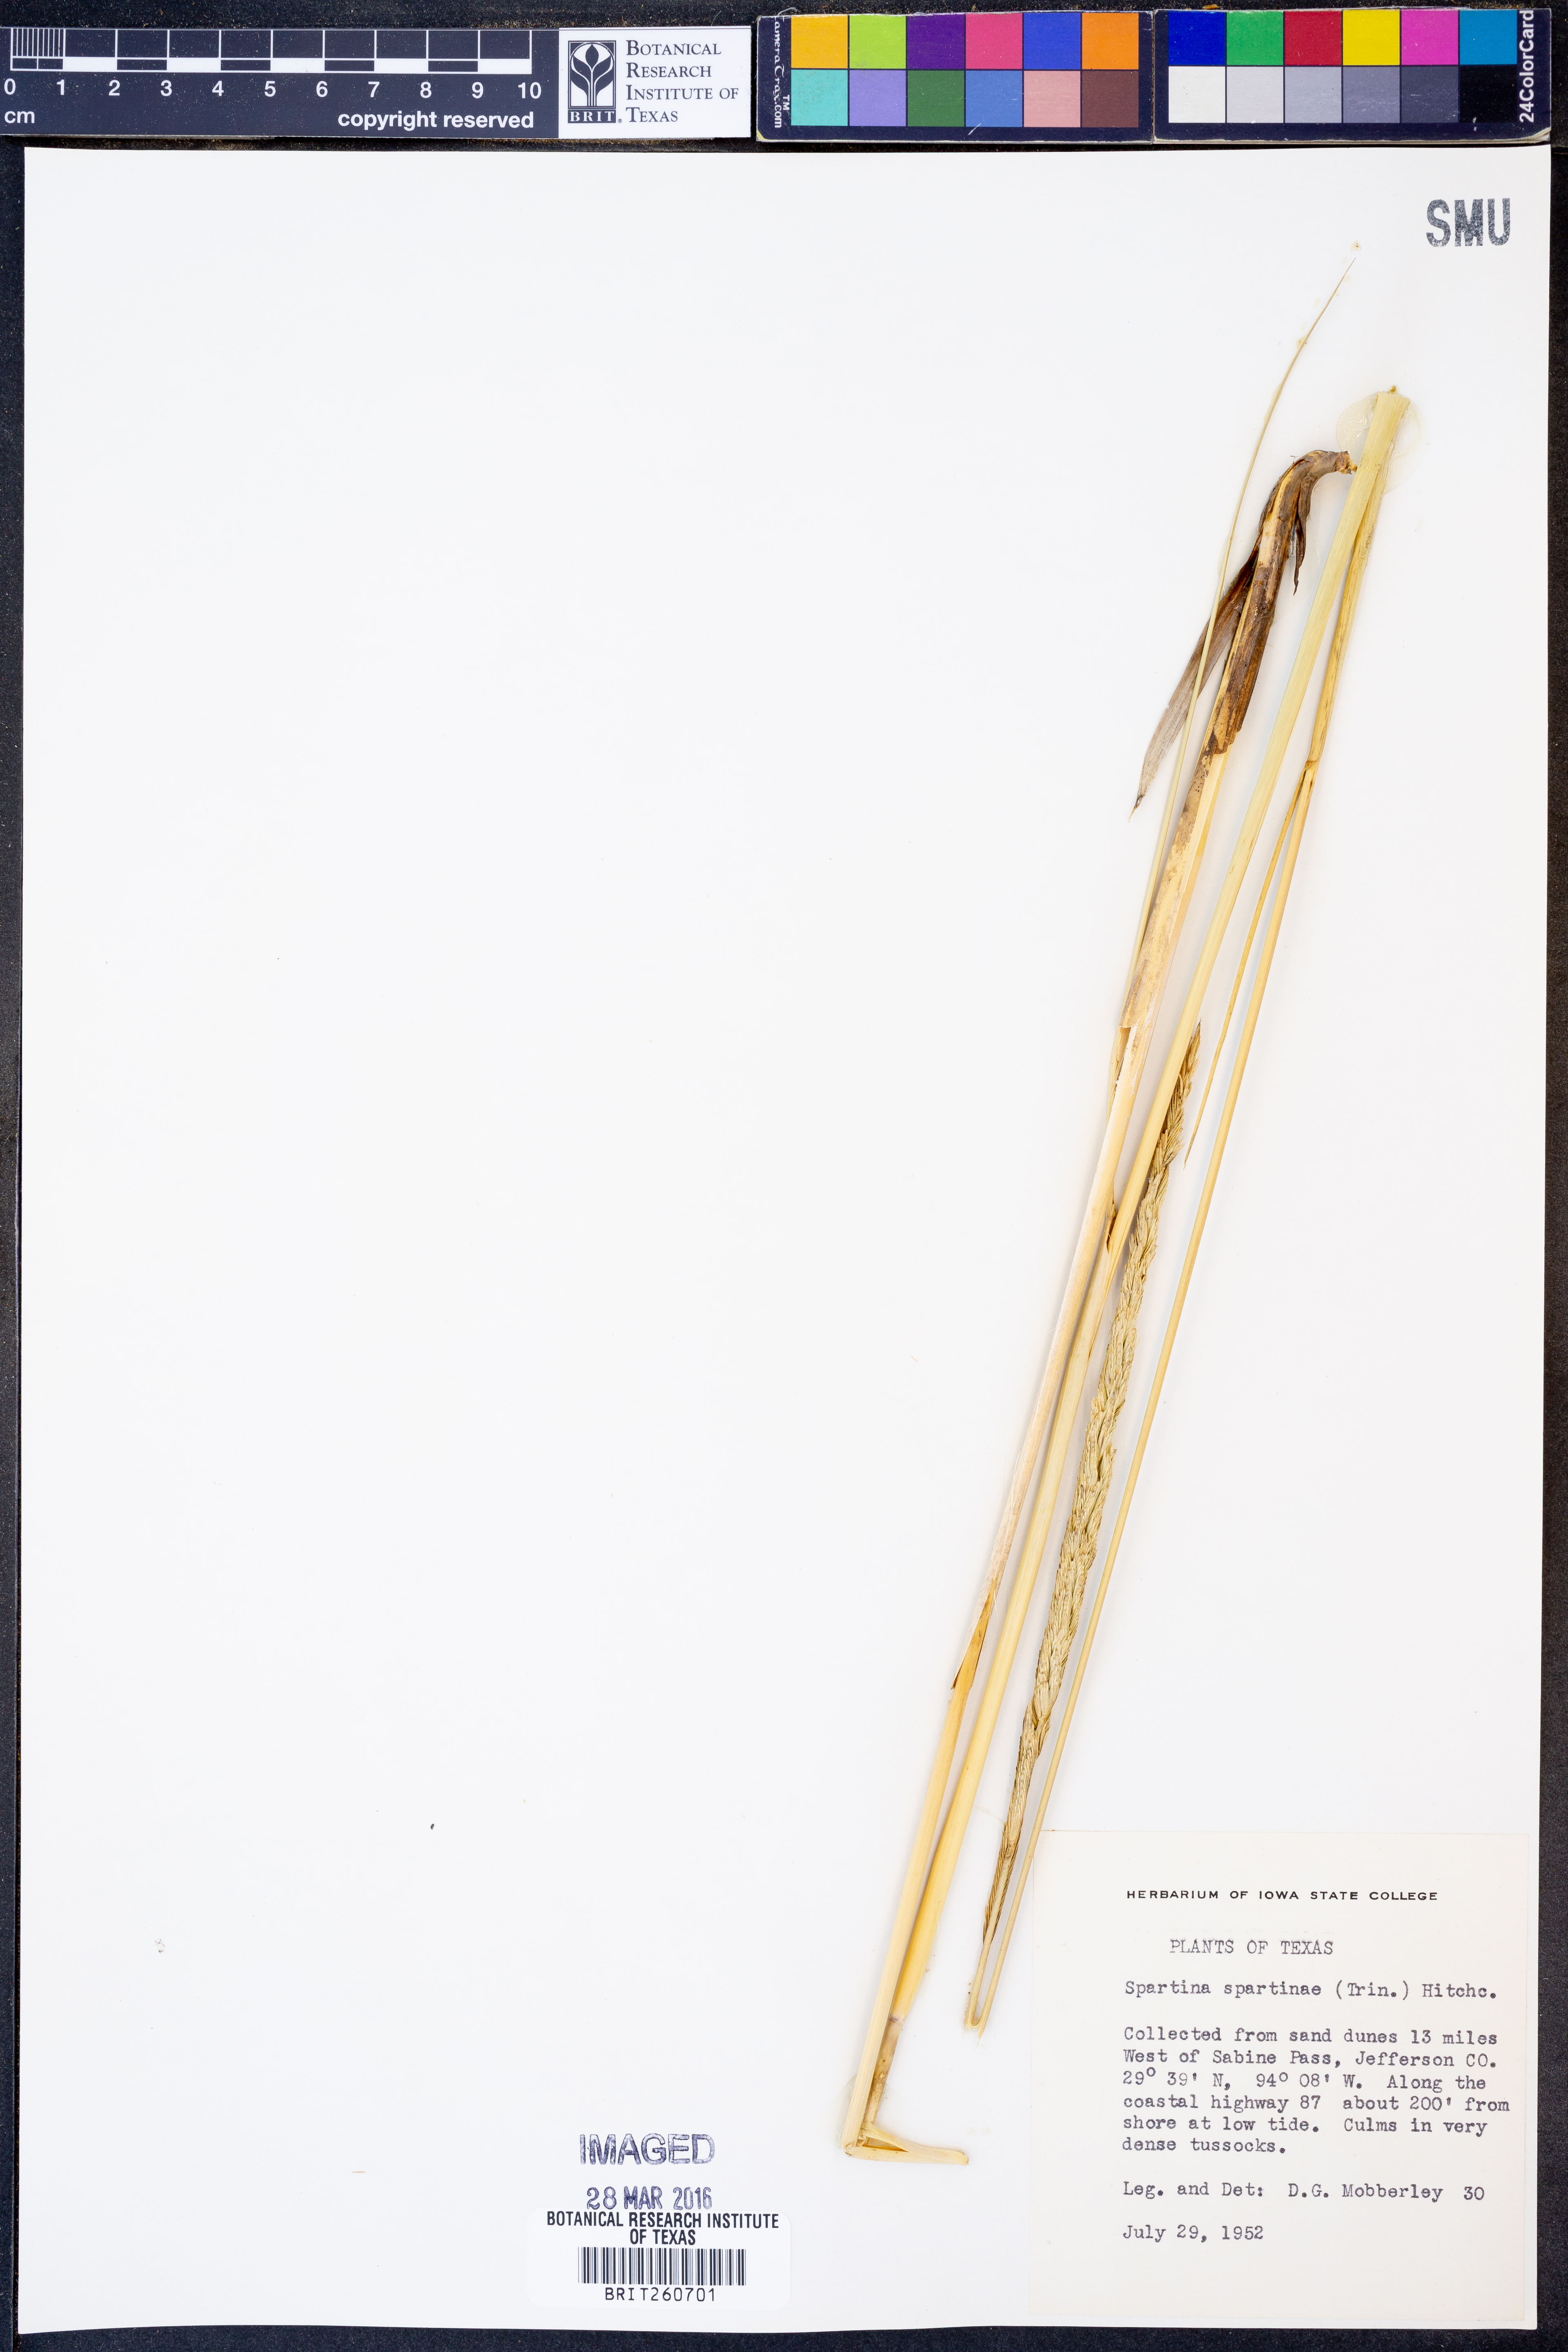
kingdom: Plantae
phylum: Tracheophyta
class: Liliopsida
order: Poales
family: Poaceae
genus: Sporobolus
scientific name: Sporobolus spartinae
